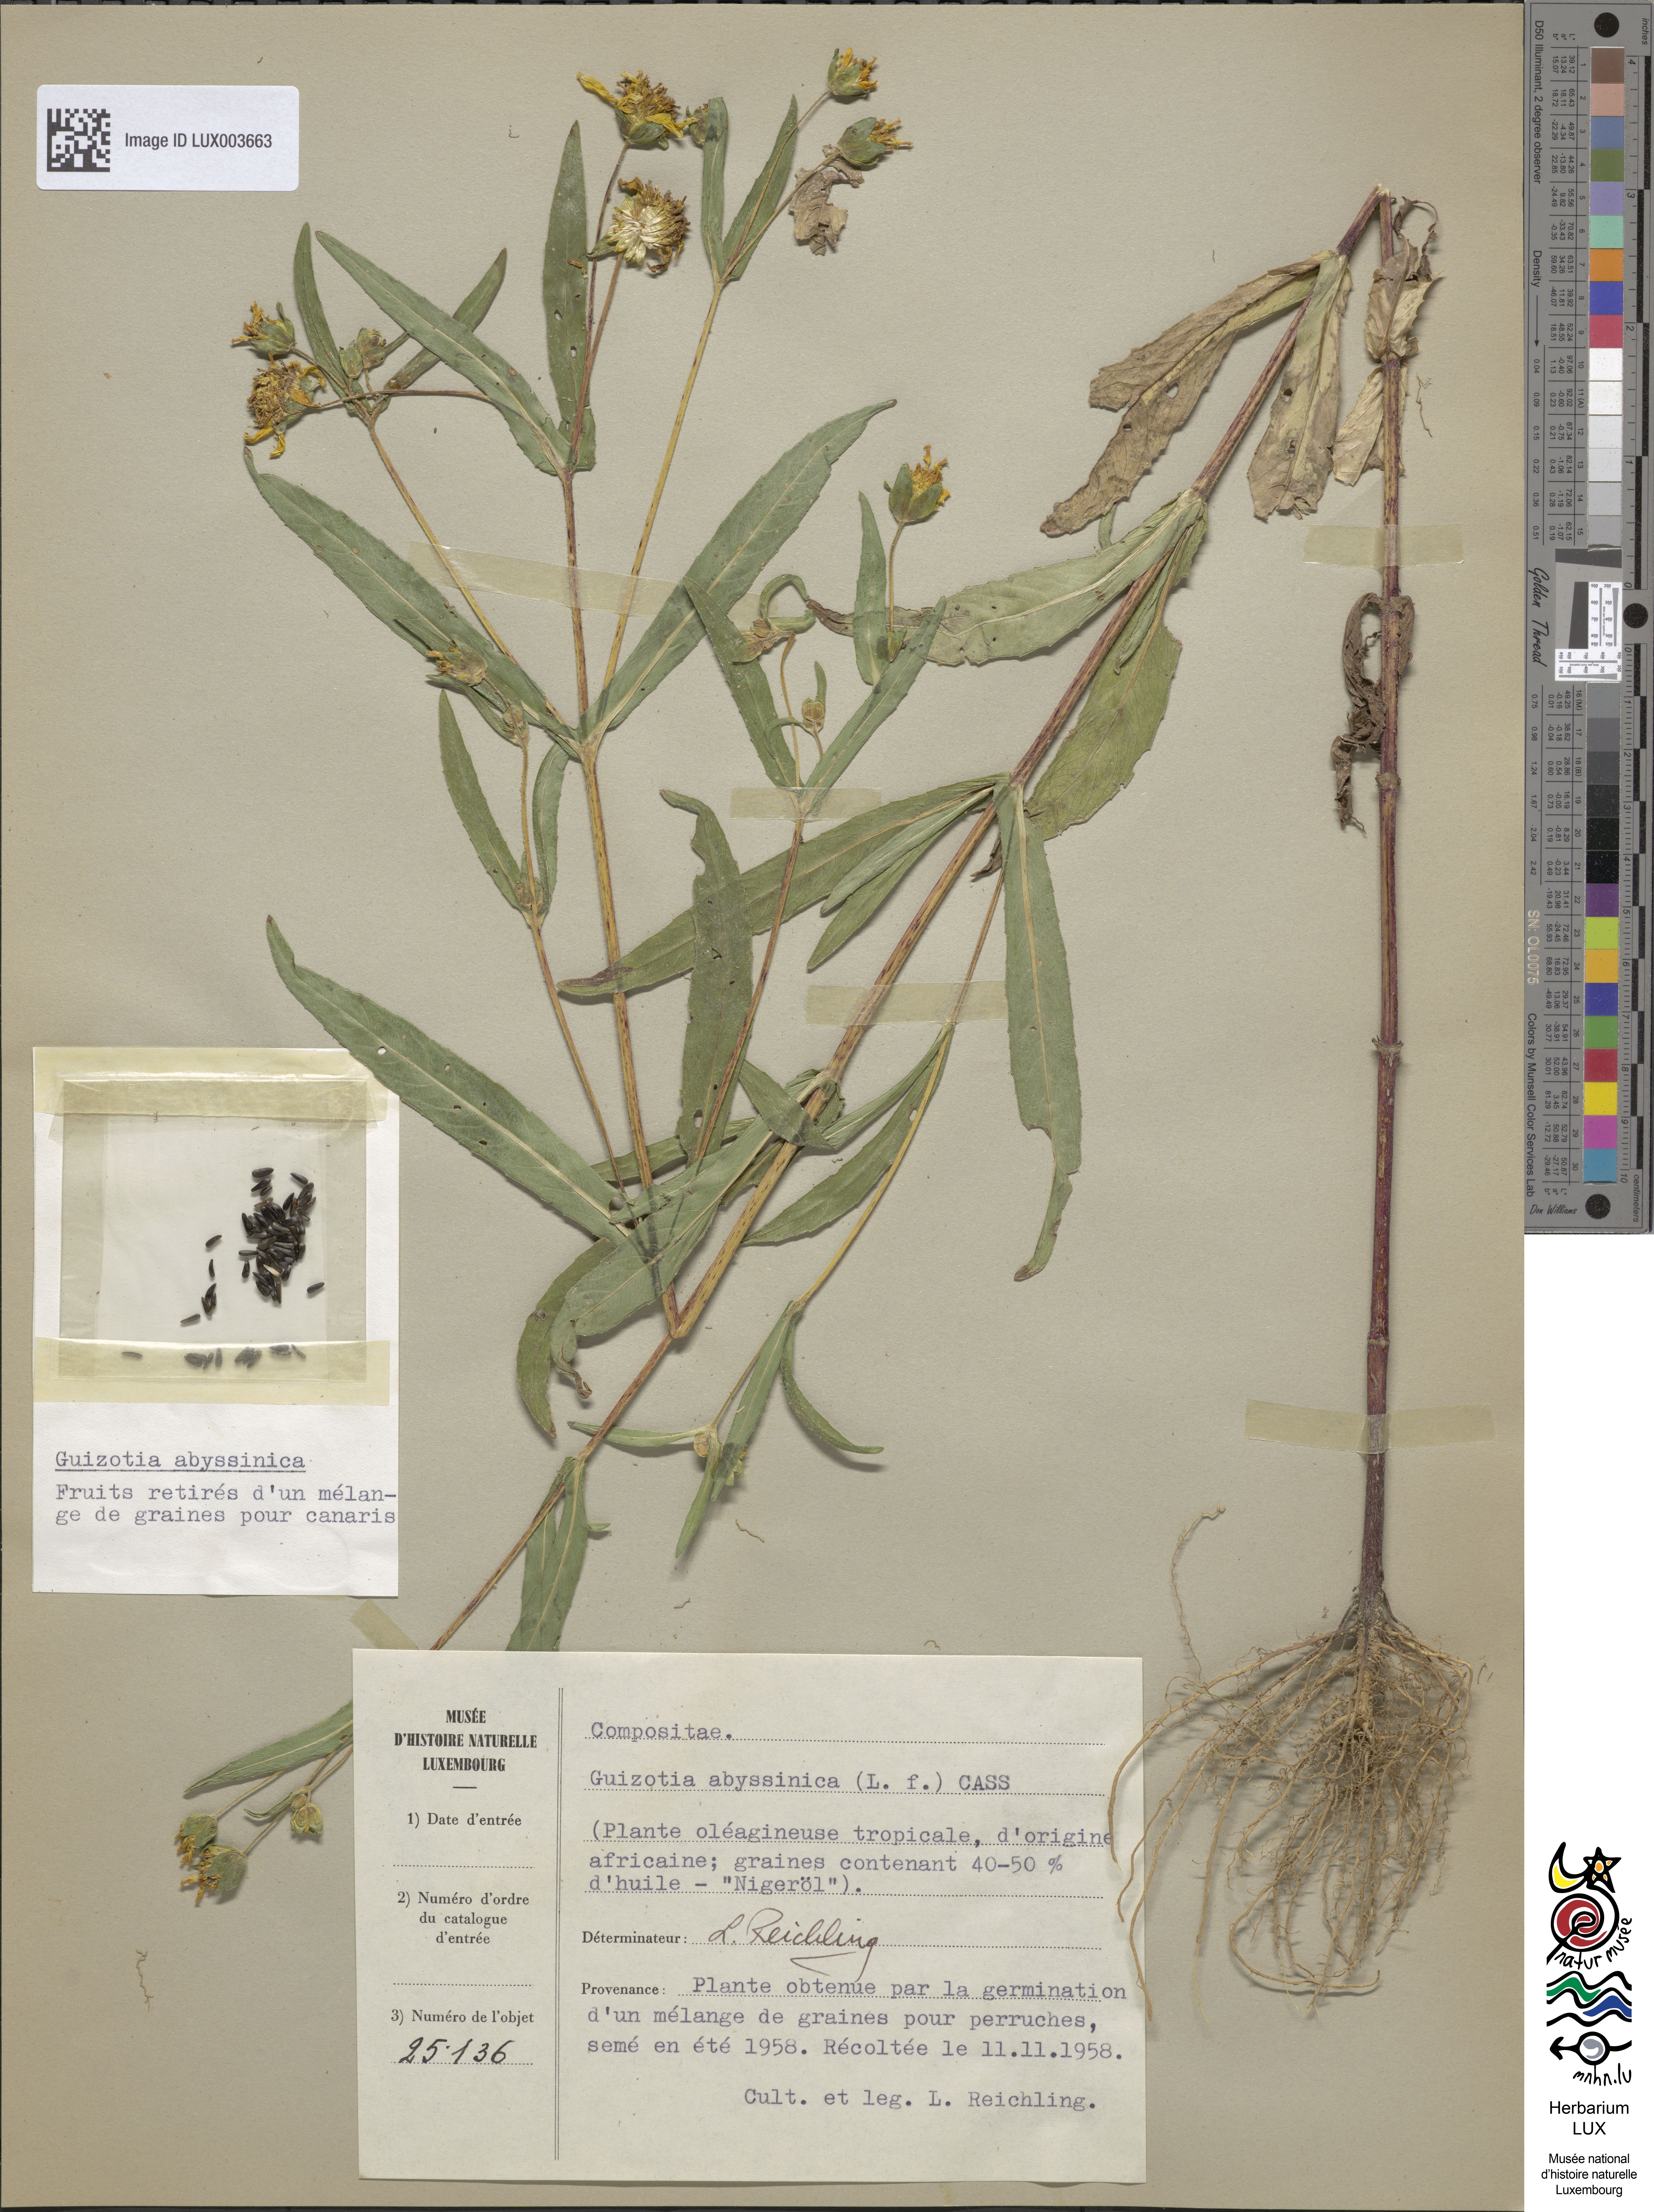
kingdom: Plantae
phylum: Tracheophyta
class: Magnoliopsida
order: Asterales
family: Asteraceae
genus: Guizotia
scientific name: Guizotia abyssinica
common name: Niger
